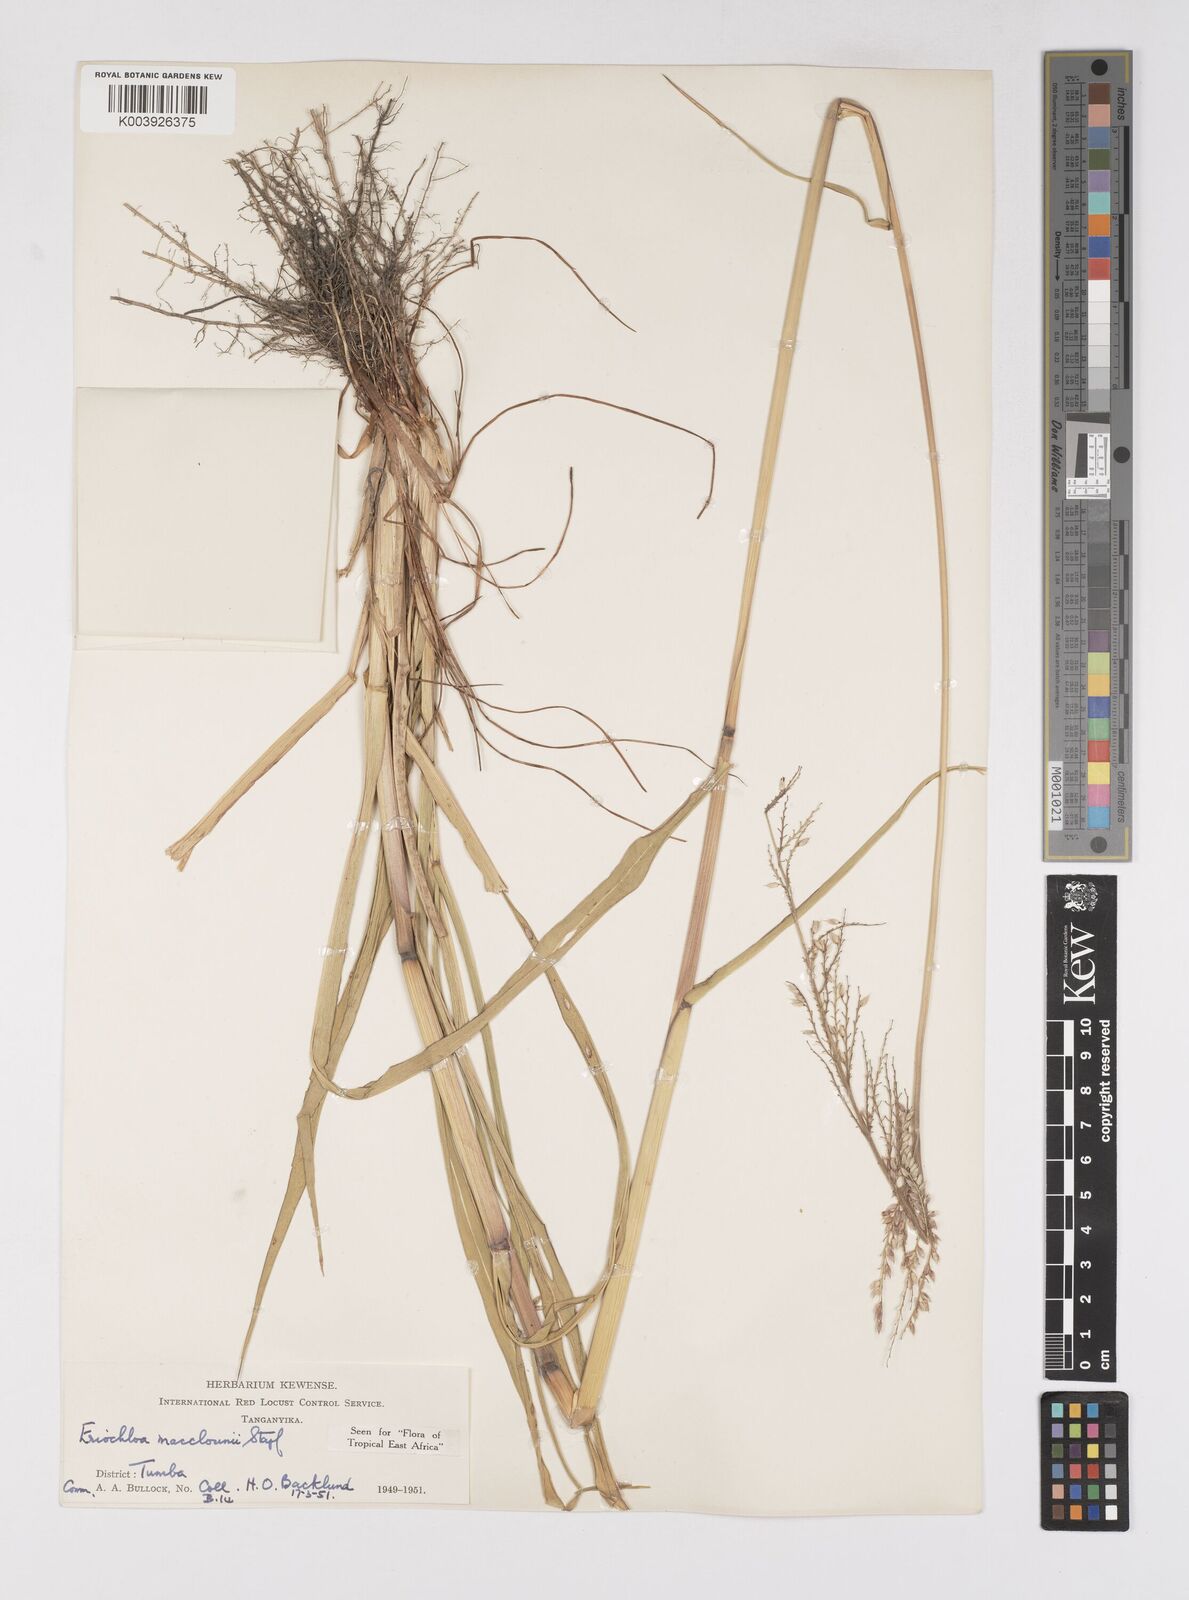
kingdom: Plantae
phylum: Tracheophyta
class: Liliopsida
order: Poales
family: Poaceae
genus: Eriochloa
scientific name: Eriochloa macclounii
